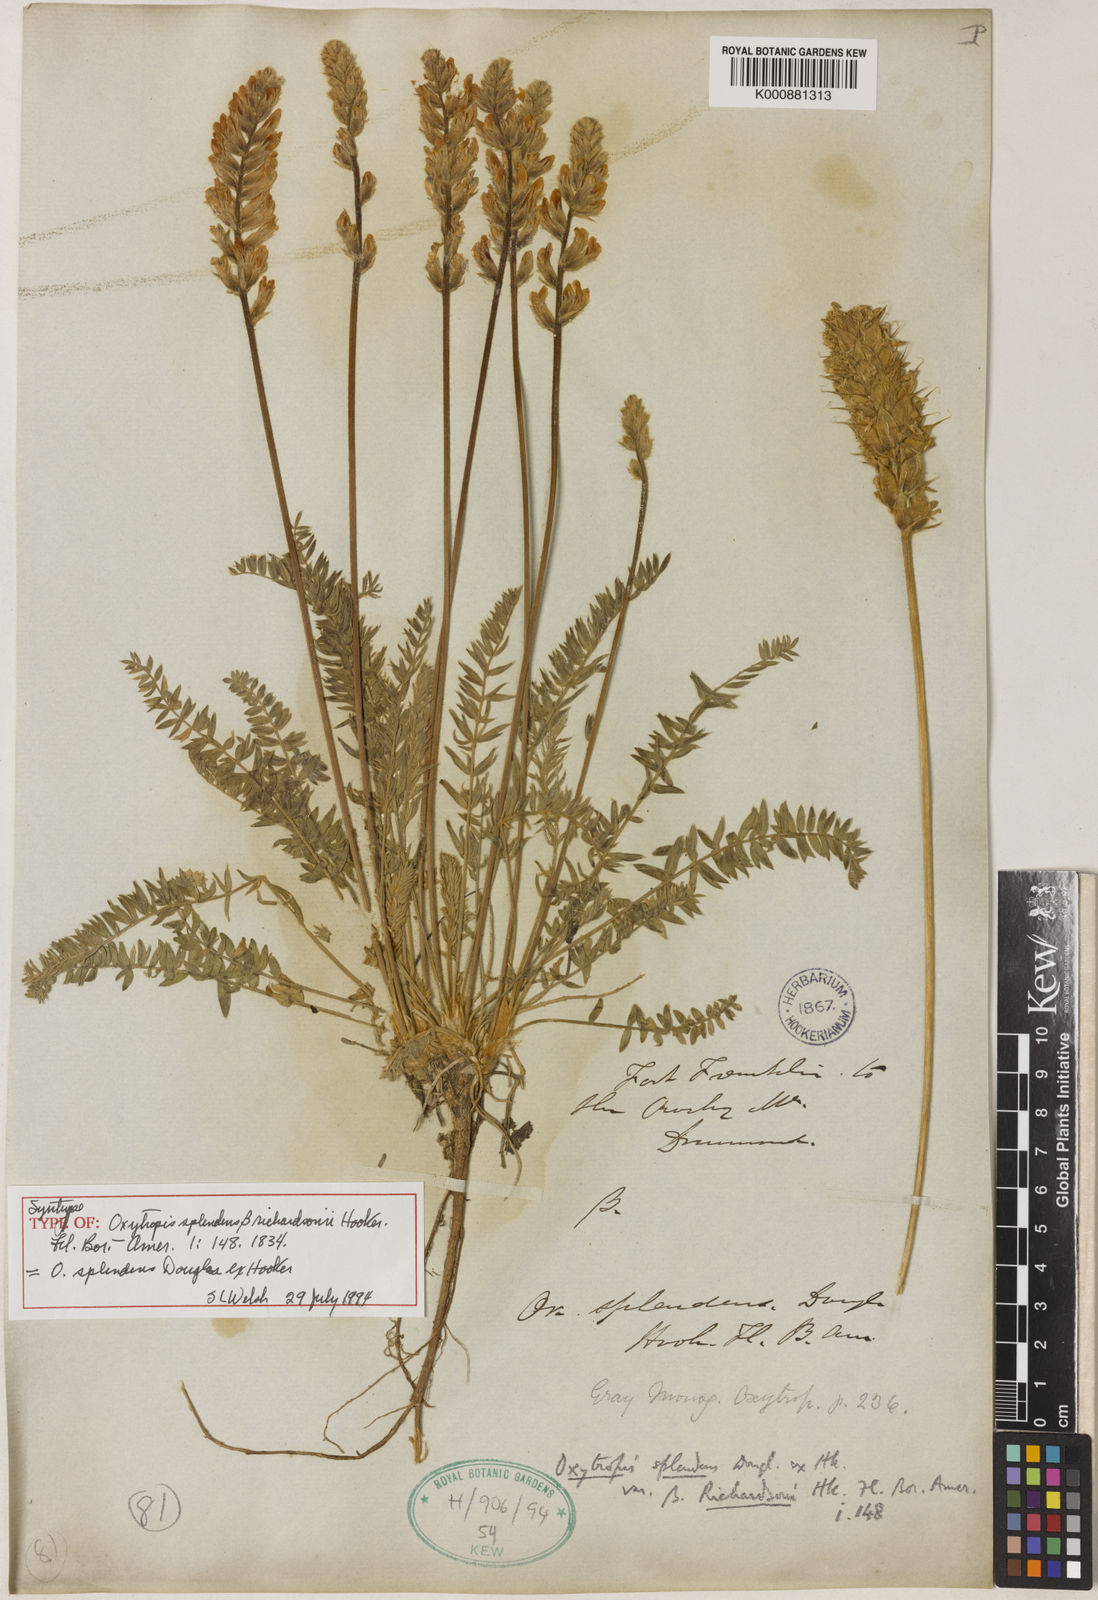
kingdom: Plantae
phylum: Tracheophyta
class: Magnoliopsida
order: Fabales
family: Fabaceae
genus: Oxytropis
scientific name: Oxytropis
